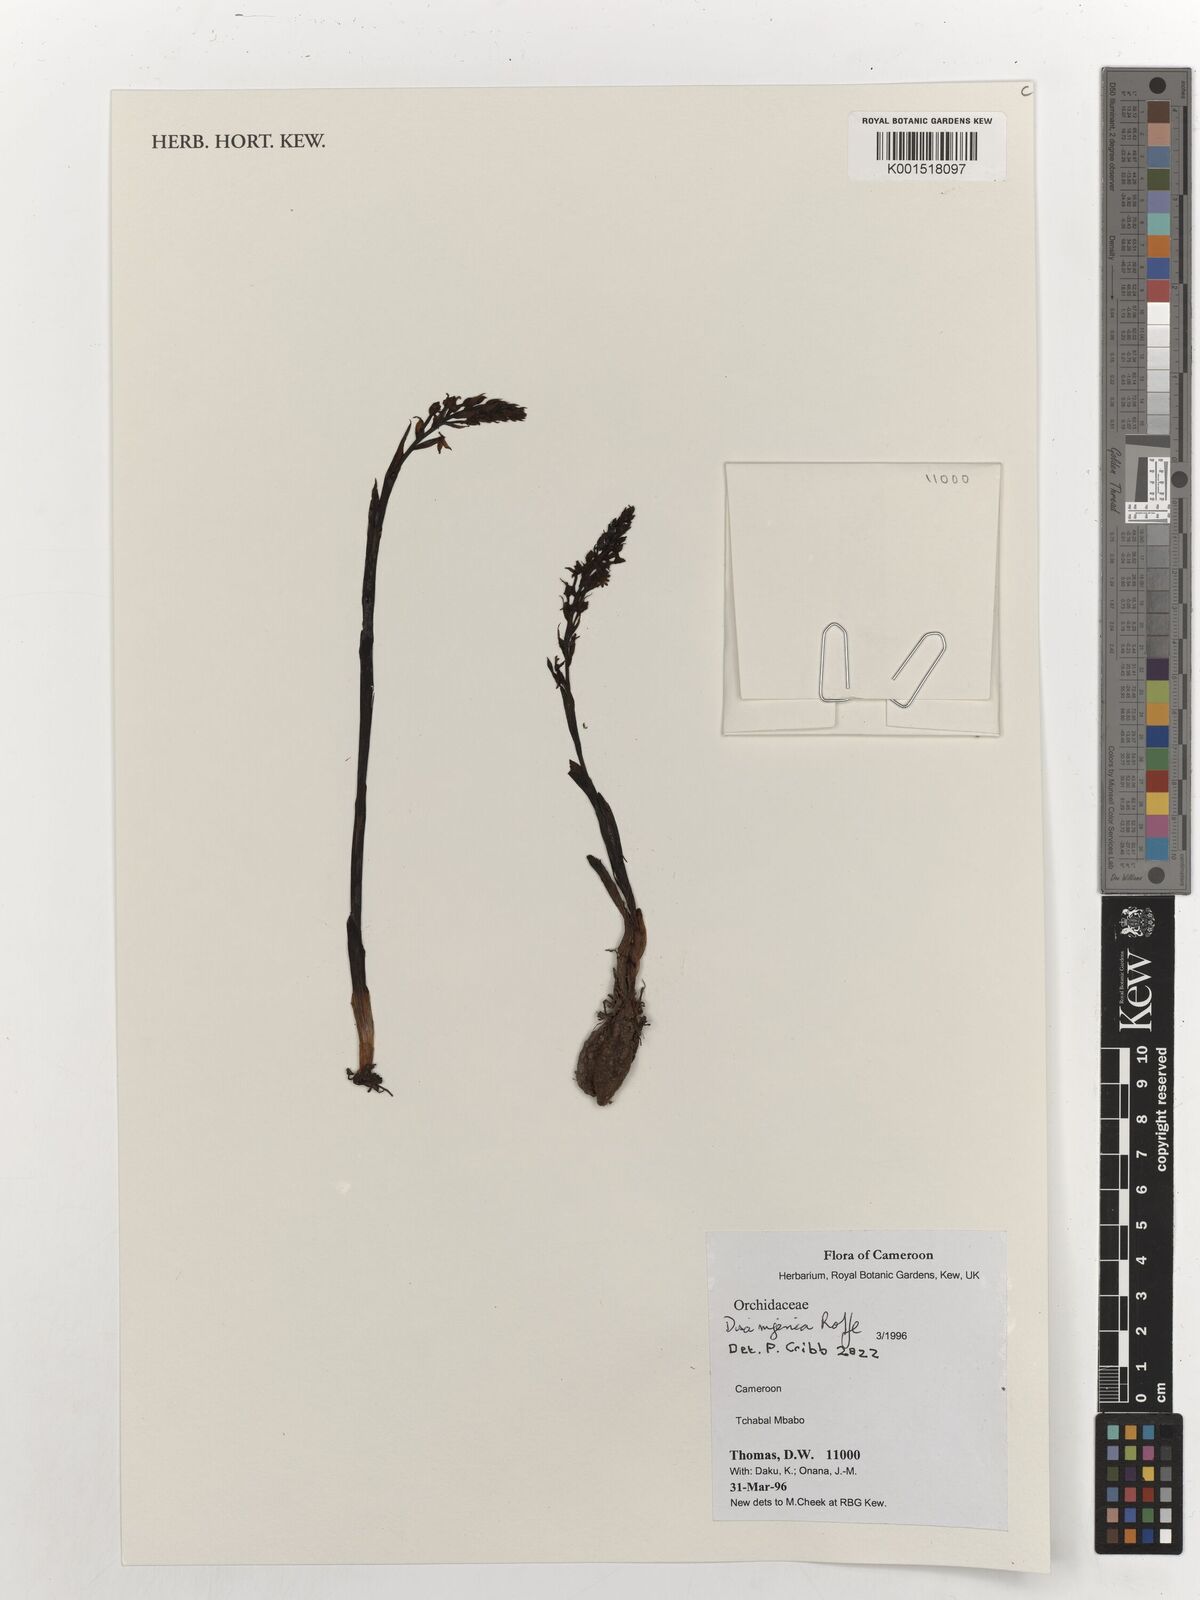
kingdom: Plantae
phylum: Tracheophyta
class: Liliopsida
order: Asparagales
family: Orchidaceae
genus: Disa
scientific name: Disa nigerica
